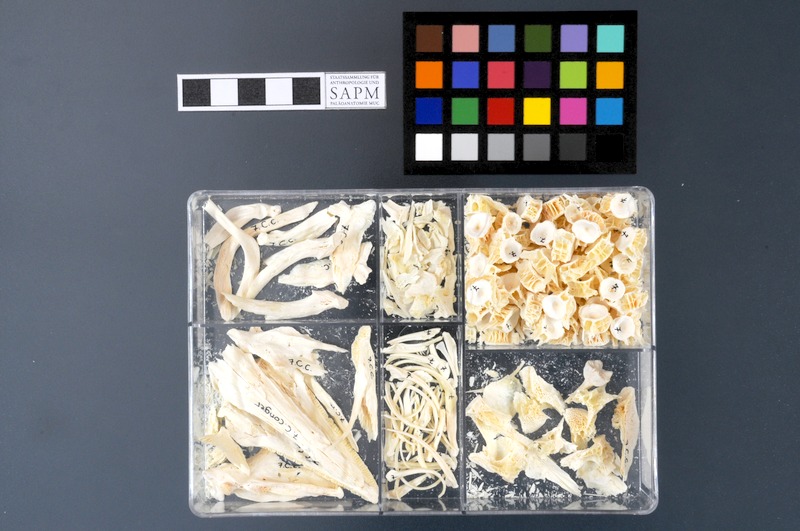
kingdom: Animalia
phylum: Chordata
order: Anguilliformes
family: Congridae
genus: Conger
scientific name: Conger conger
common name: Conger eel
